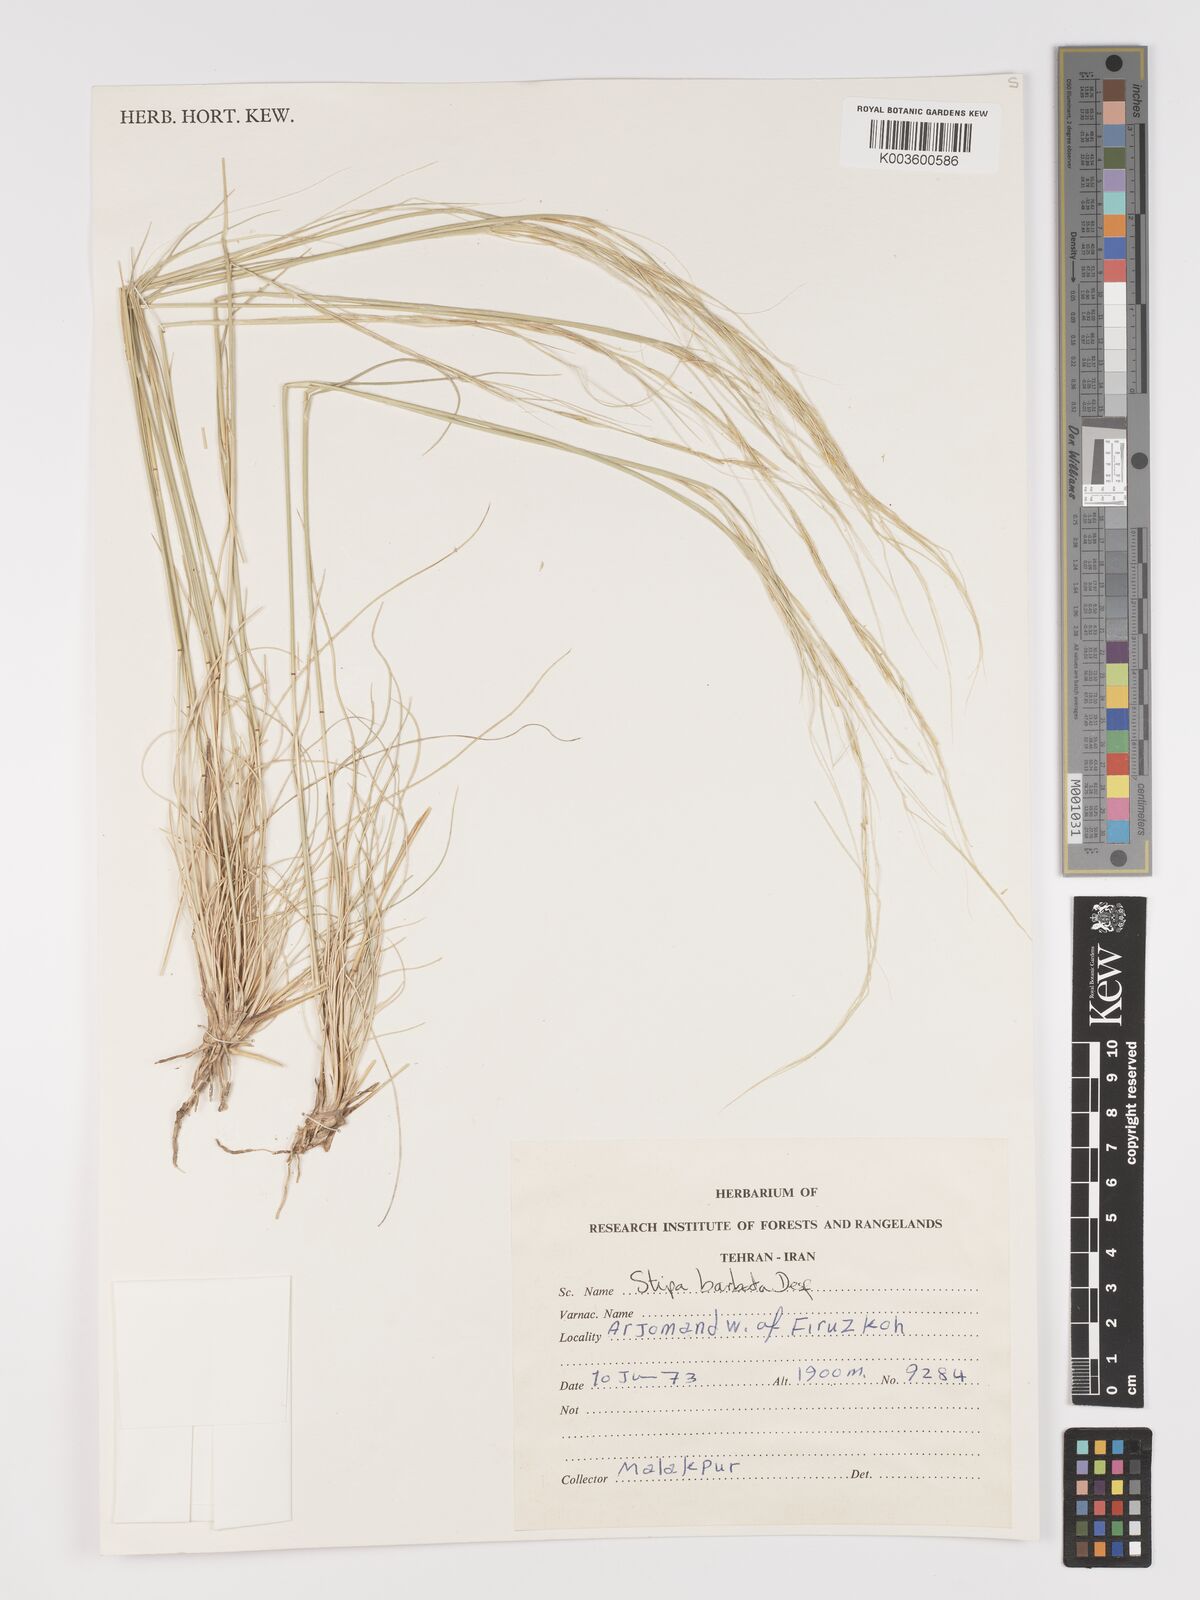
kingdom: Plantae
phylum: Tracheophyta
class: Liliopsida
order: Poales
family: Poaceae
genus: Stipa
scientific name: Stipa barbata
